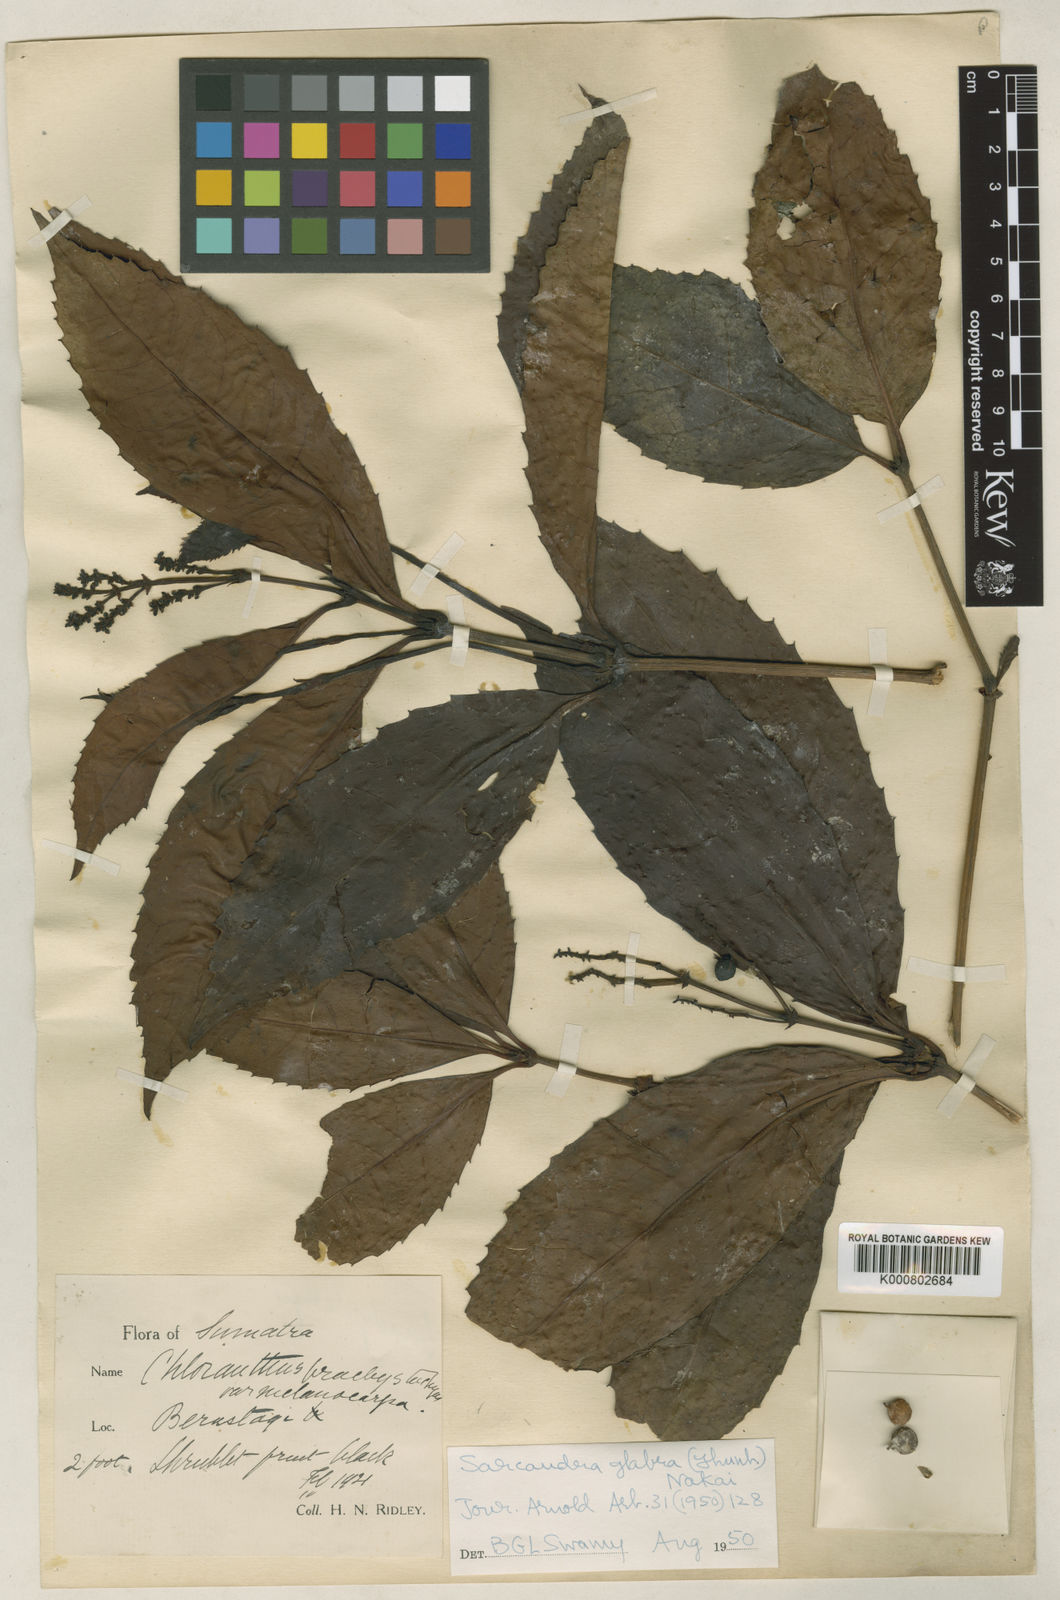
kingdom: Plantae
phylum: Tracheophyta
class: Magnoliopsida
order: Chloranthales
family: Chloranthaceae
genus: Sarcandra
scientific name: Sarcandra glabra
